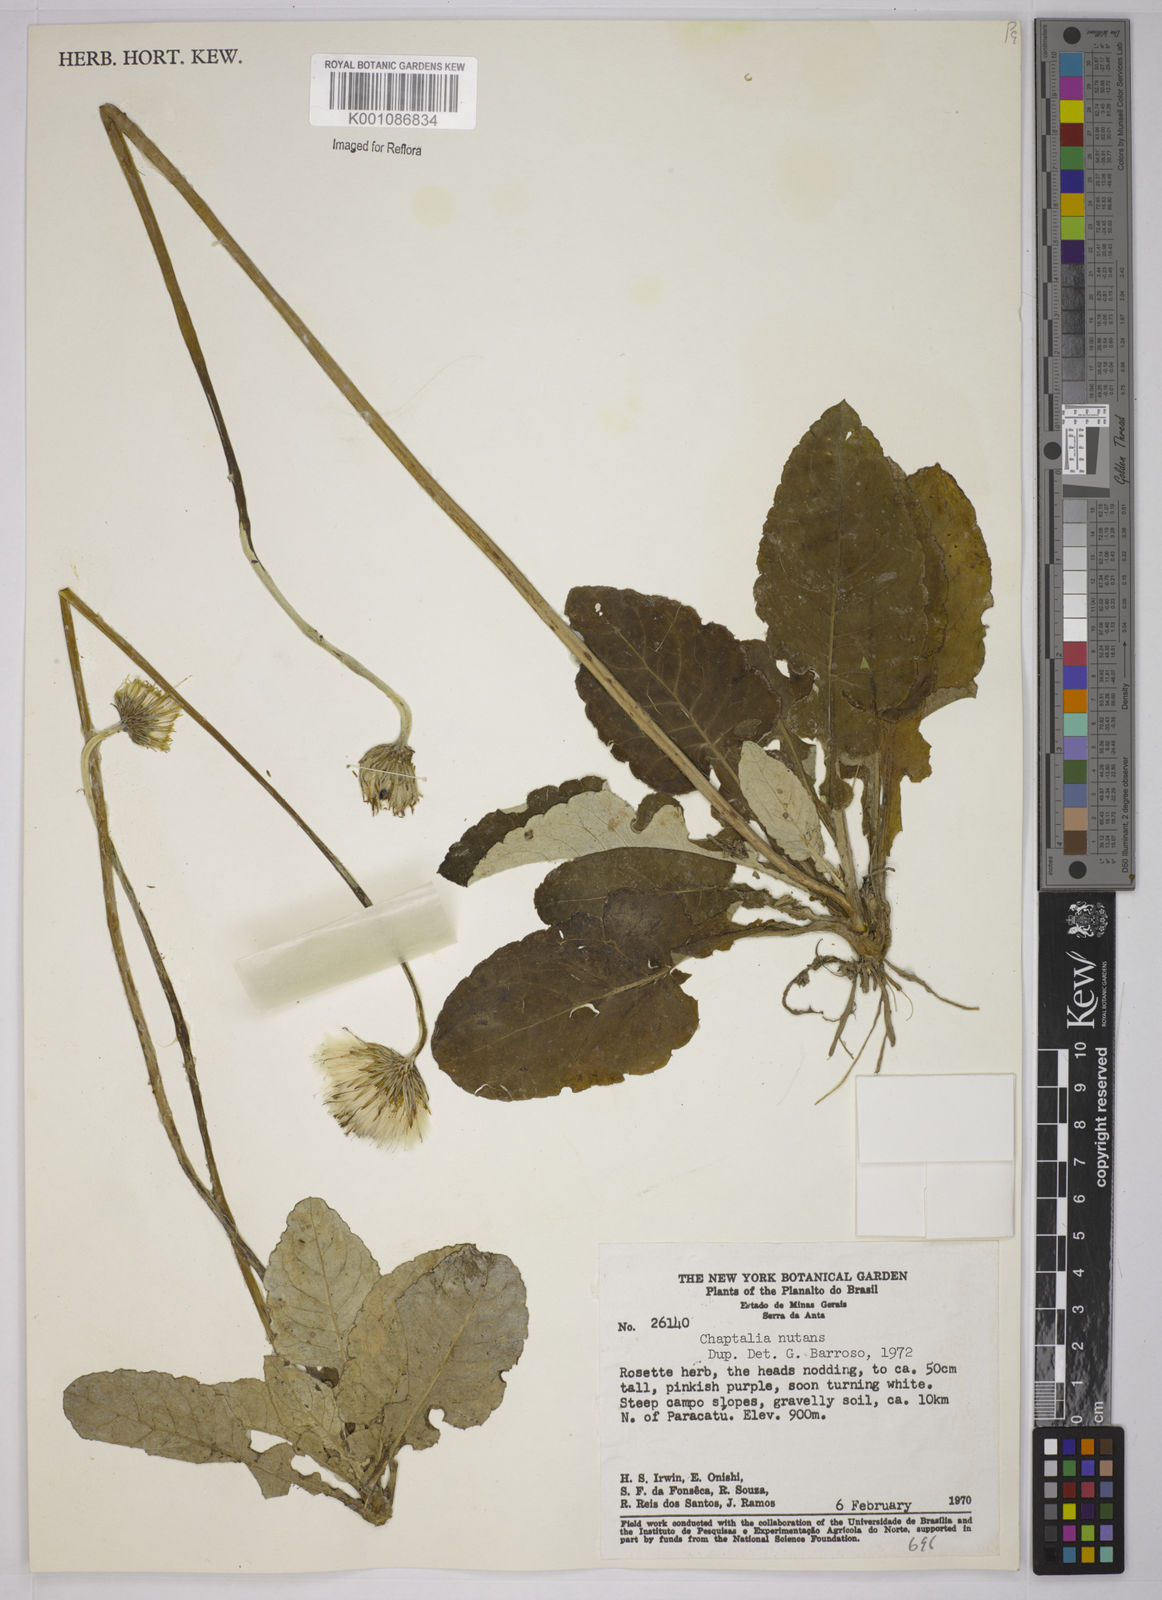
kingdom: Plantae
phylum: Tracheophyta
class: Magnoliopsida
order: Asterales
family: Asteraceae
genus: Chaptalia
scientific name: Chaptalia nutans
